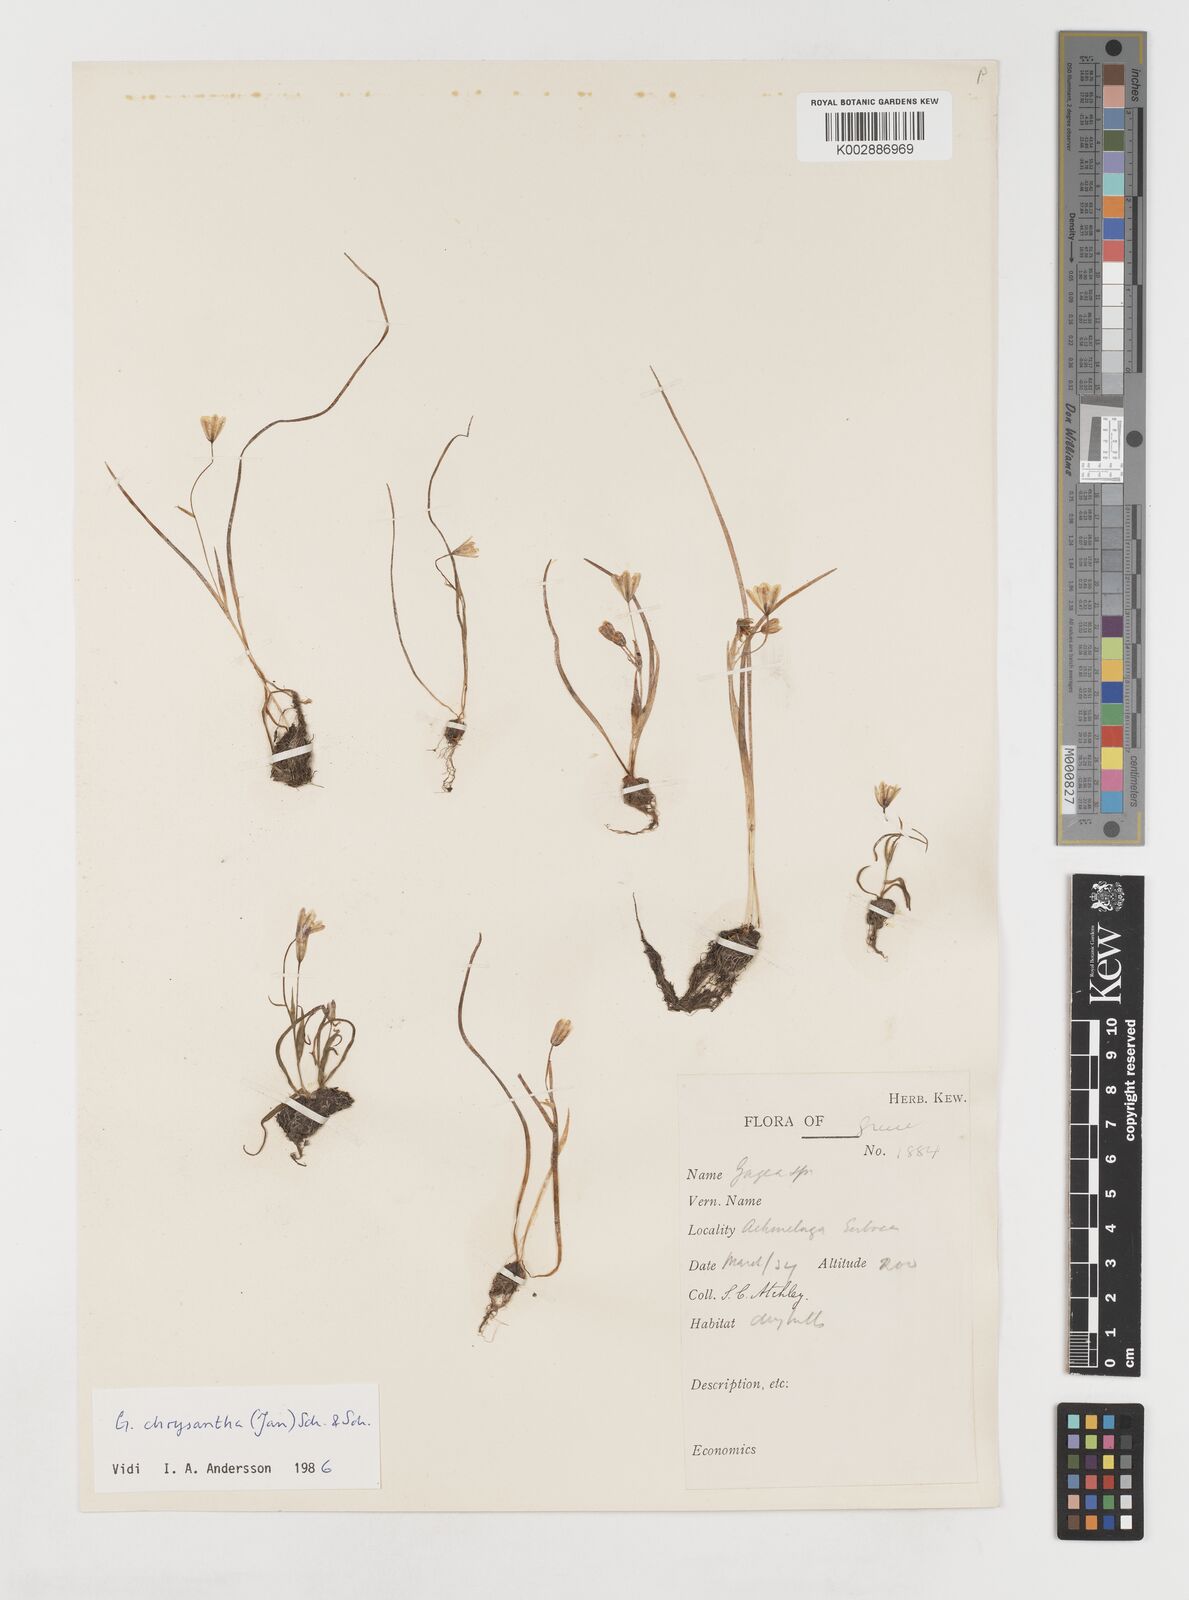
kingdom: Plantae
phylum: Tracheophyta
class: Liliopsida
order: Liliales
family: Liliaceae
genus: Gagea
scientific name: Gagea amblyopetala
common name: Blunt-flowered gagea
